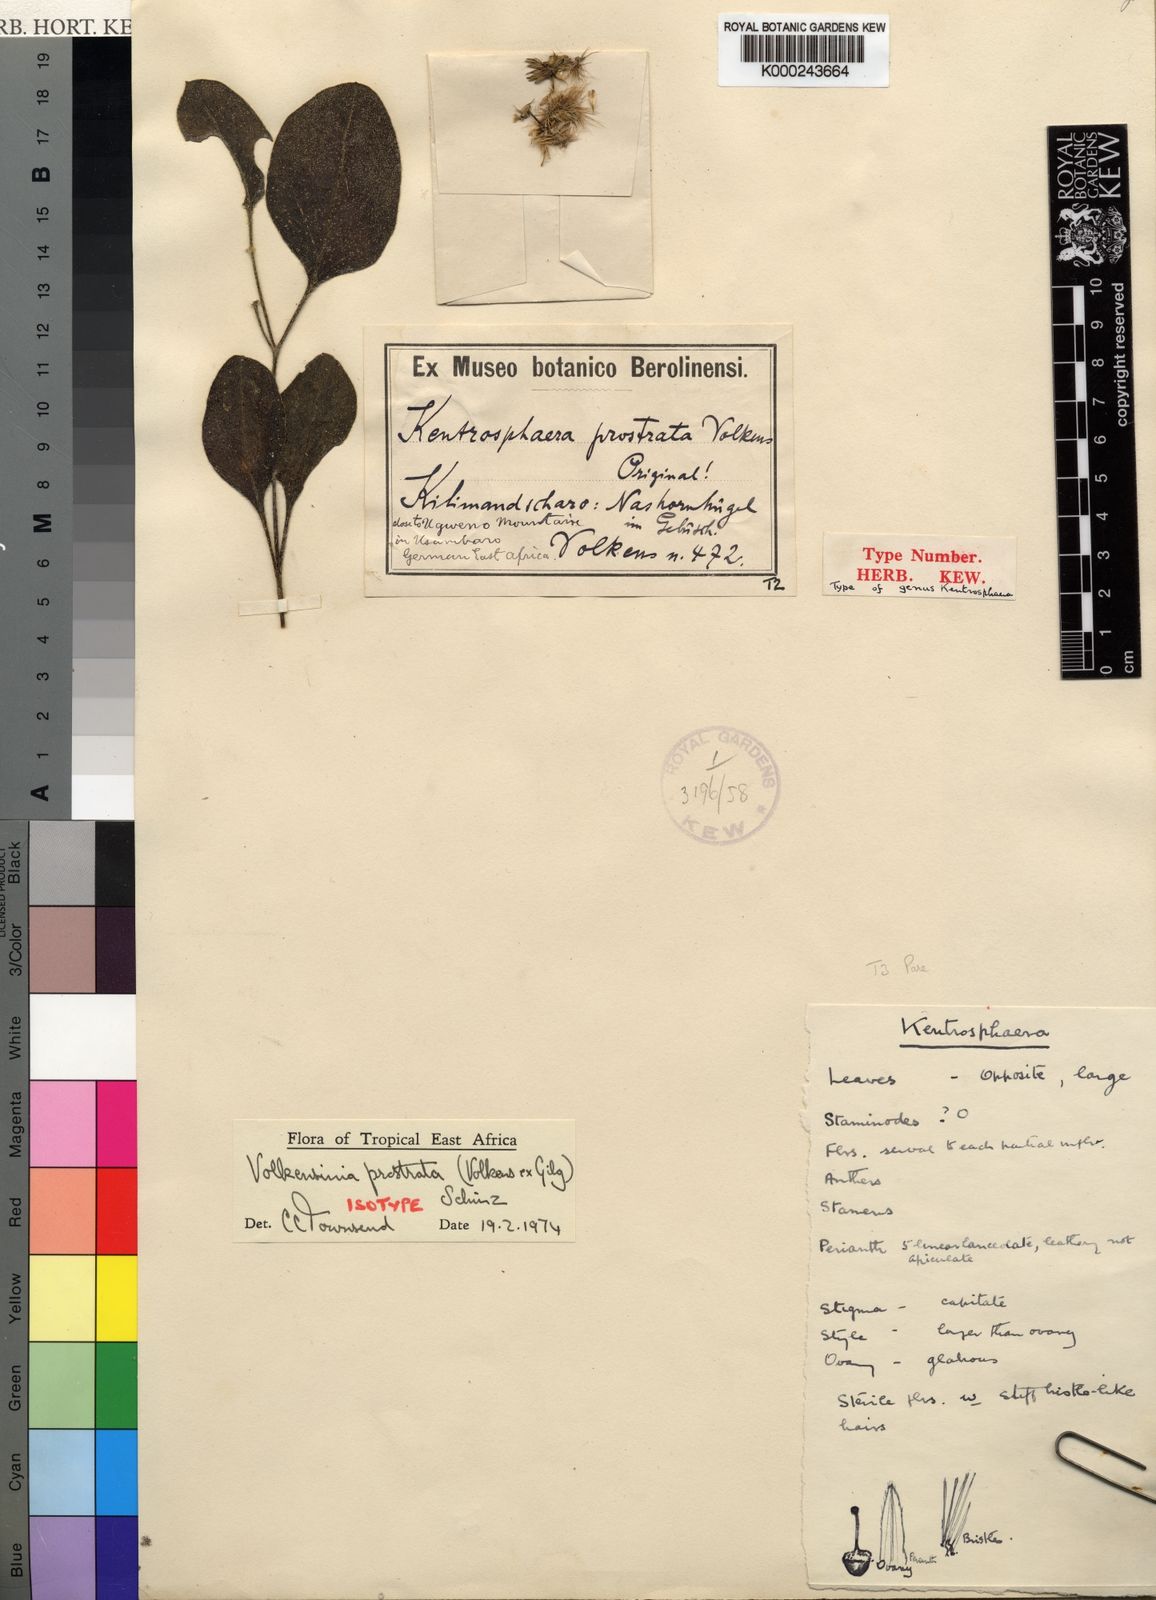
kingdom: Plantae
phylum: Tracheophyta
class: Magnoliopsida
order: Caryophyllales
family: Amaranthaceae
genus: Volkensinia
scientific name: Volkensinia prostrata
